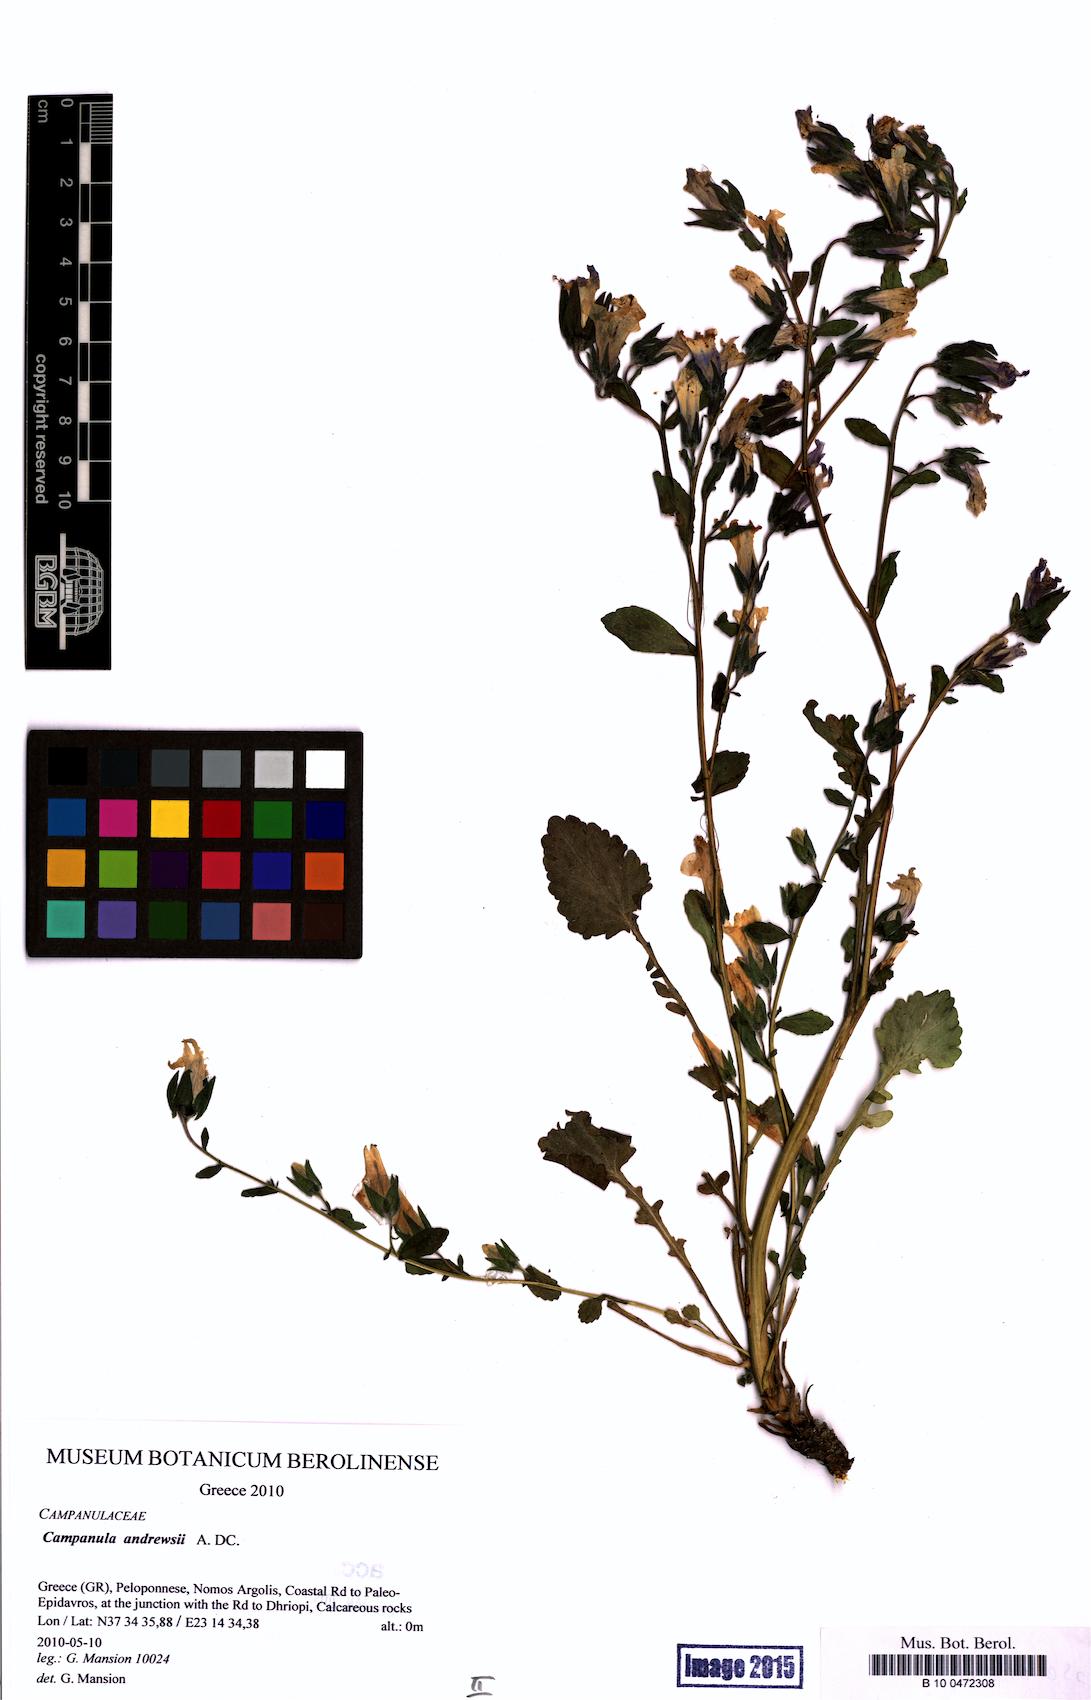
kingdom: Plantae
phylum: Tracheophyta
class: Magnoliopsida
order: Asterales
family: Campanulaceae
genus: Campanula
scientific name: Campanula andrewsii
